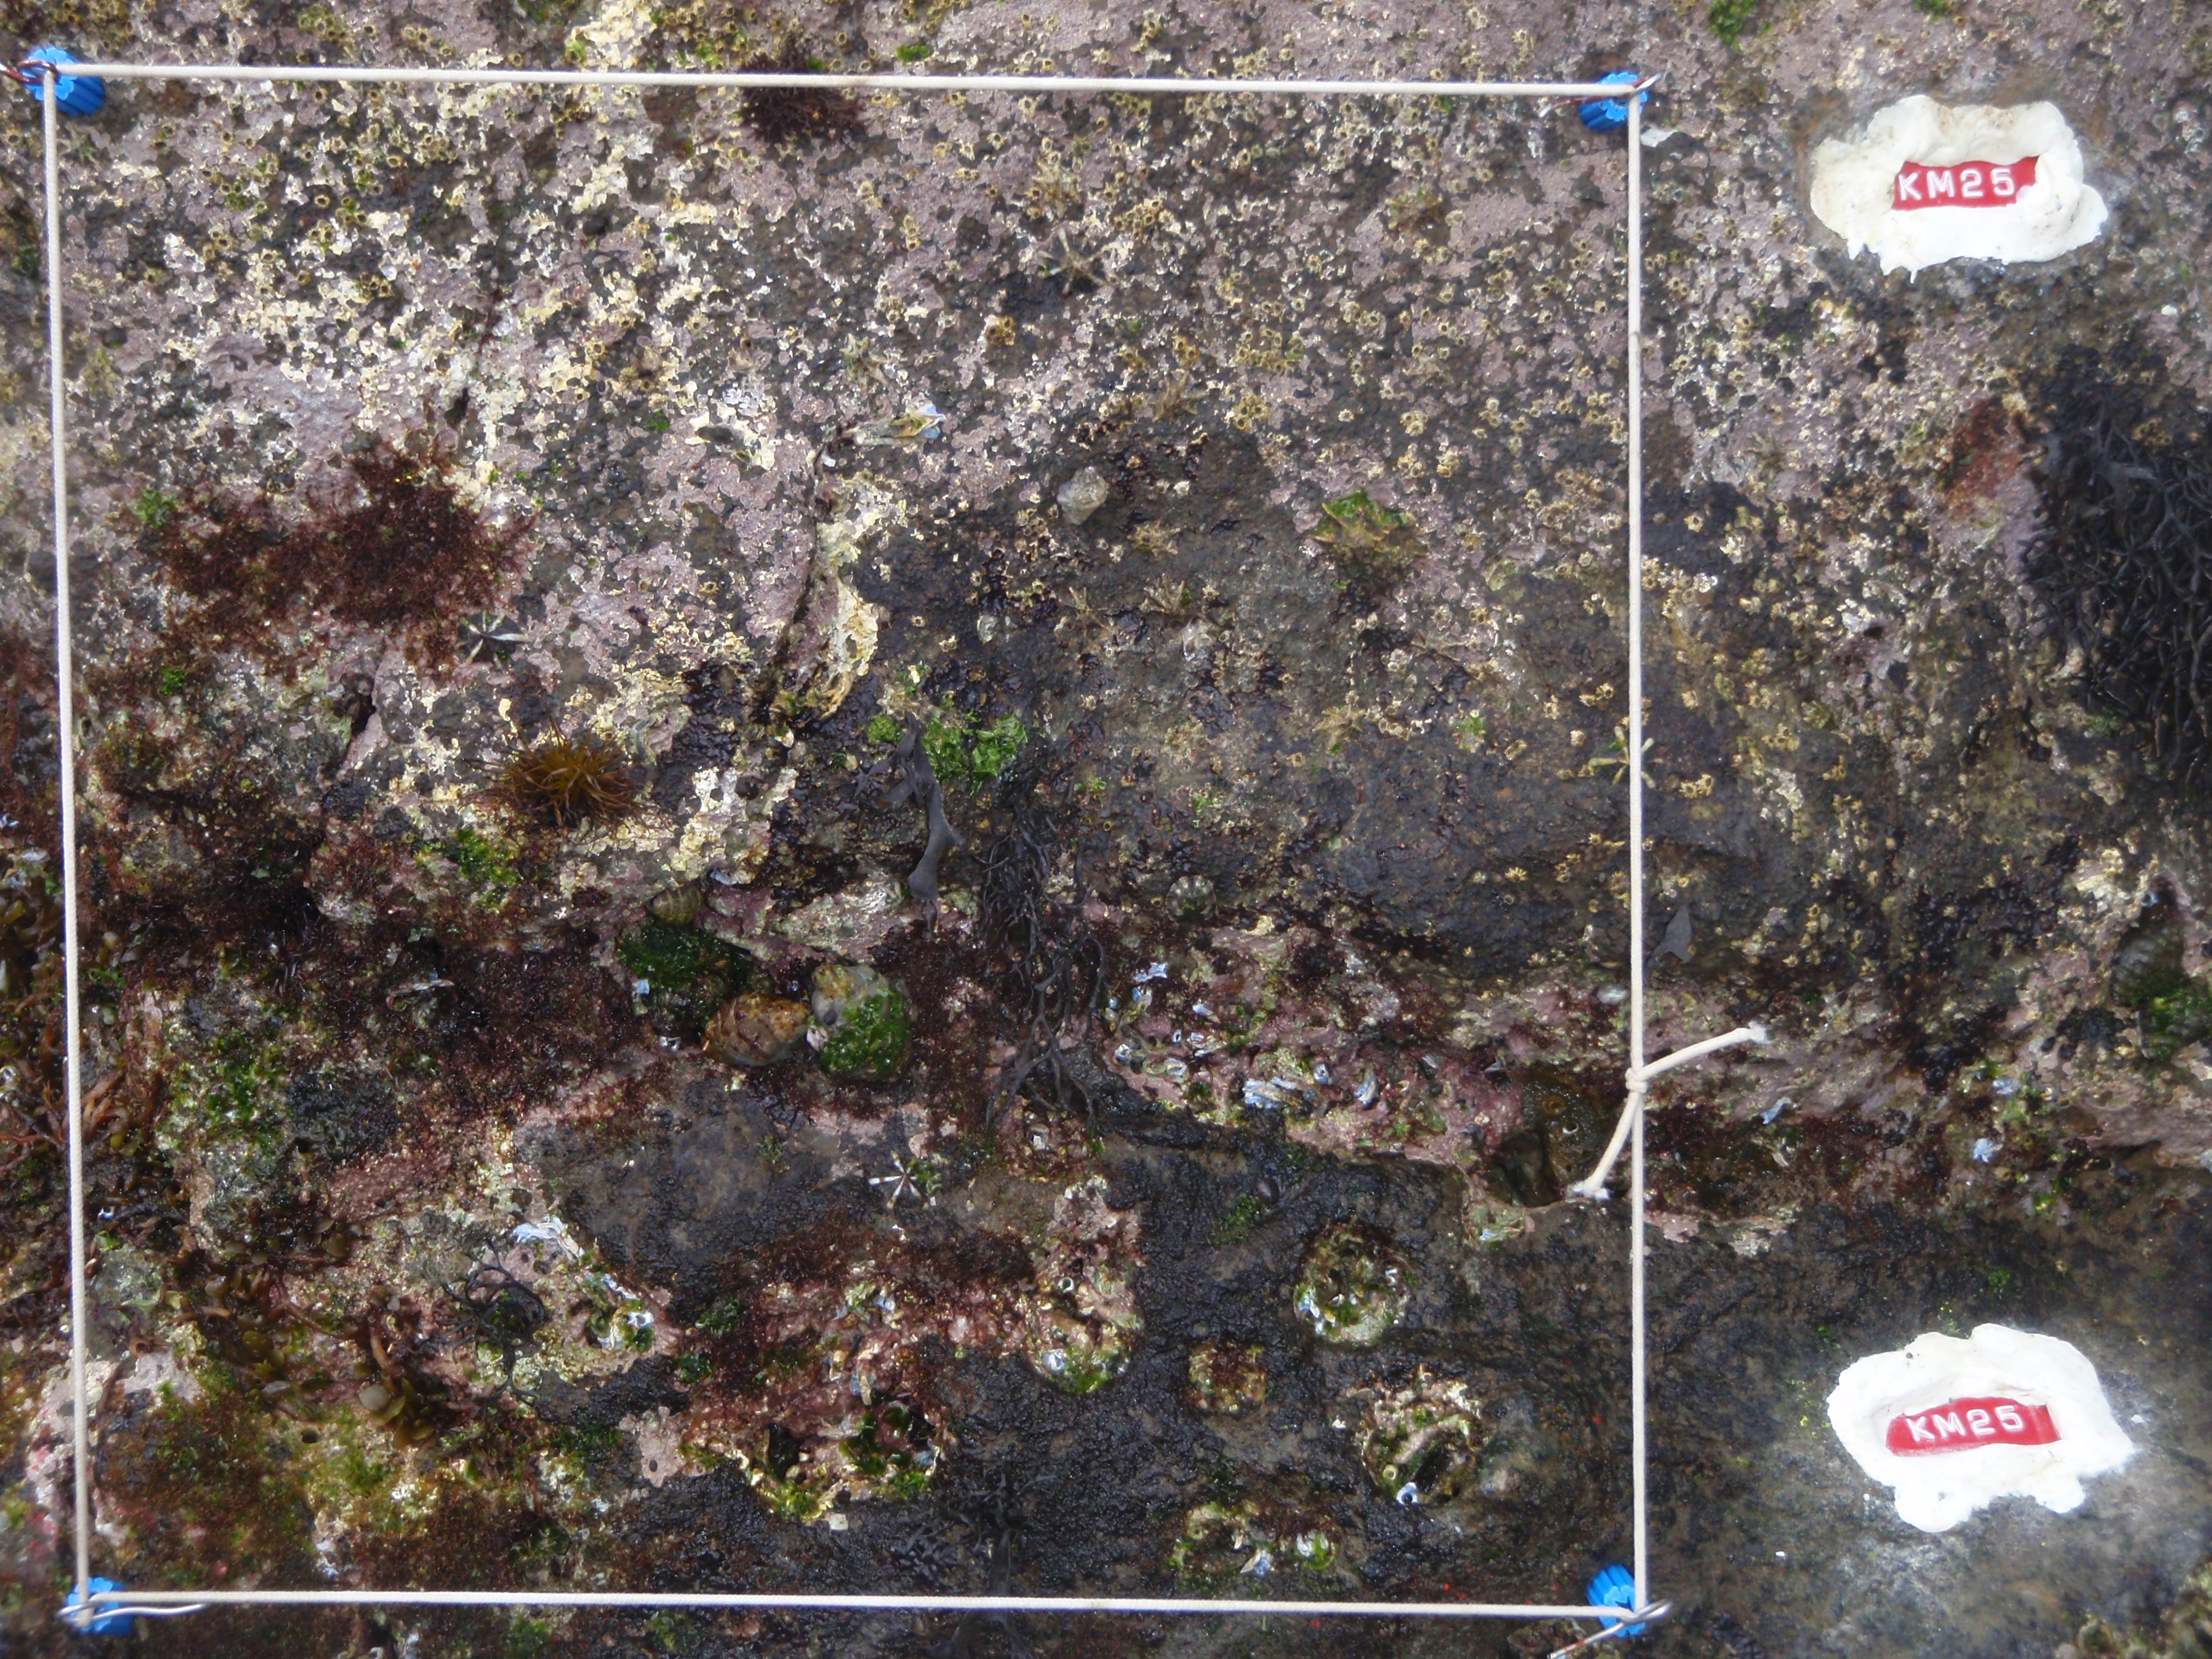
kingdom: Chromista
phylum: Ochrophyta
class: Phaeophyceae
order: Fucales
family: Sargassaceae
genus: Sargassum
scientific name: Sargassum fusiforme
